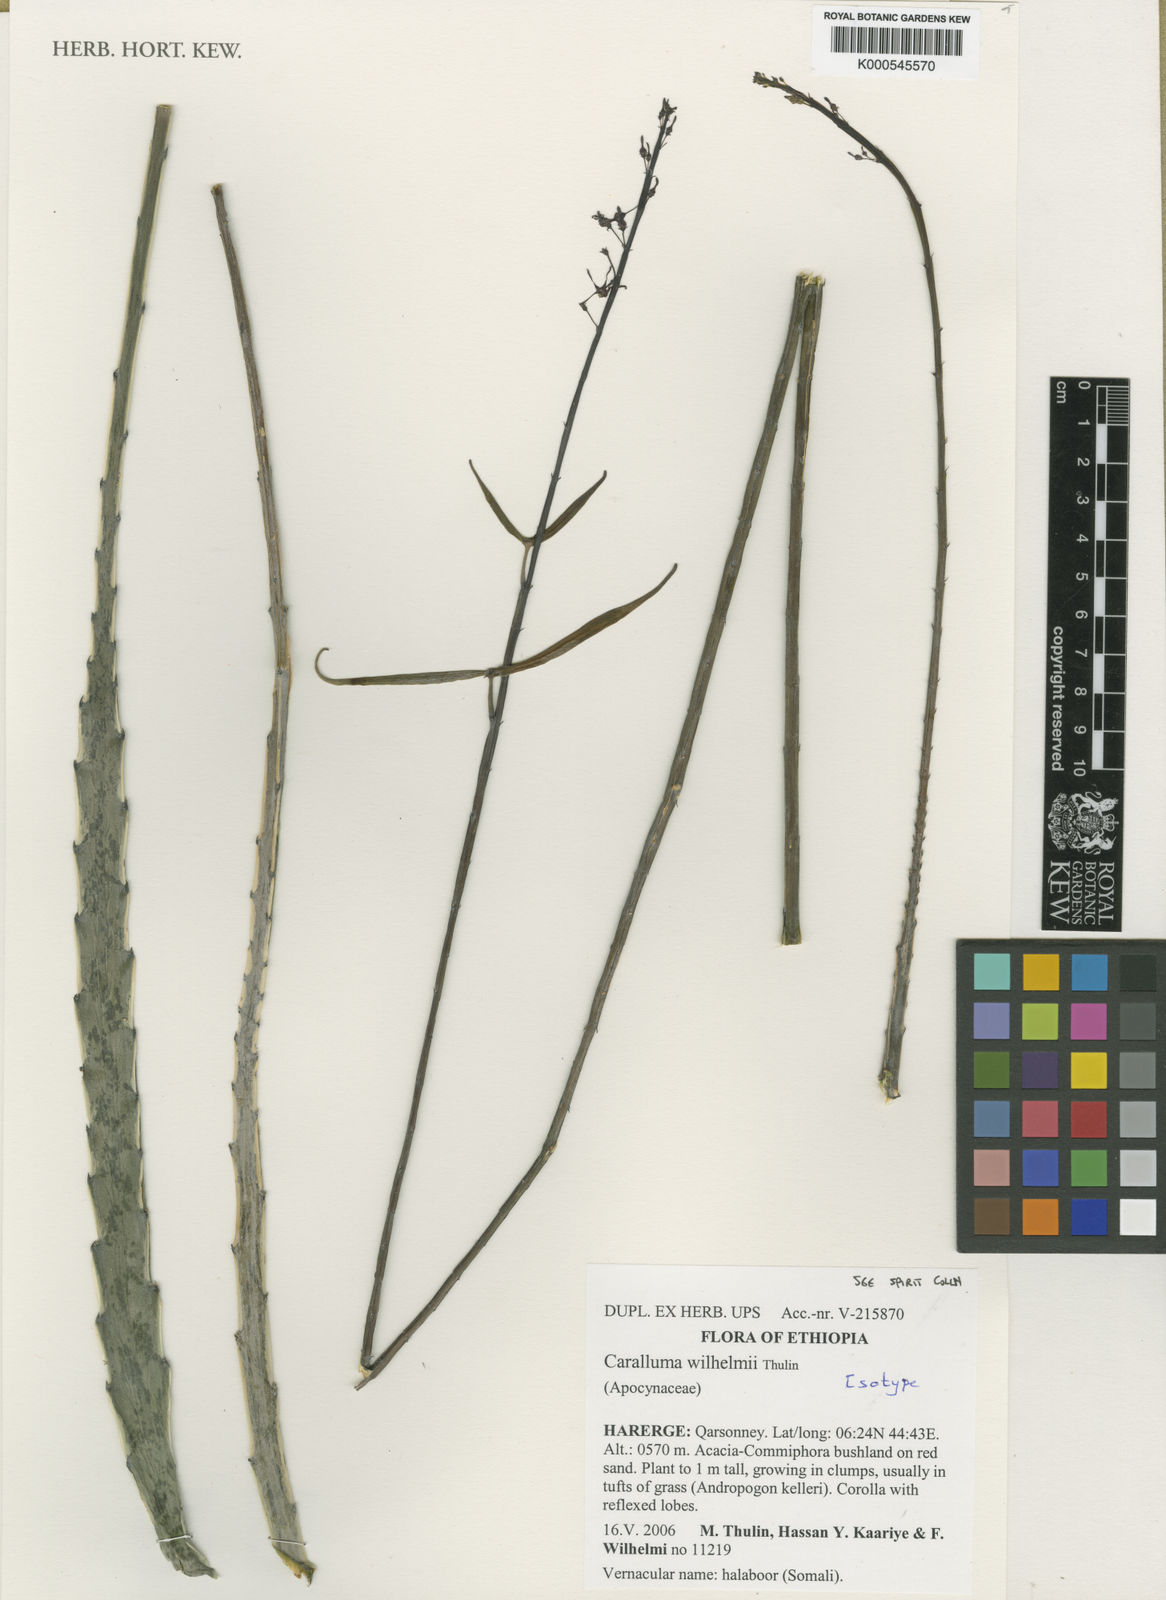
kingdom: Plantae
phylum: Tracheophyta
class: Magnoliopsida
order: Gentianales
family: Apocynaceae
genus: Ceropegia
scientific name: Ceropegia wilhelmii
